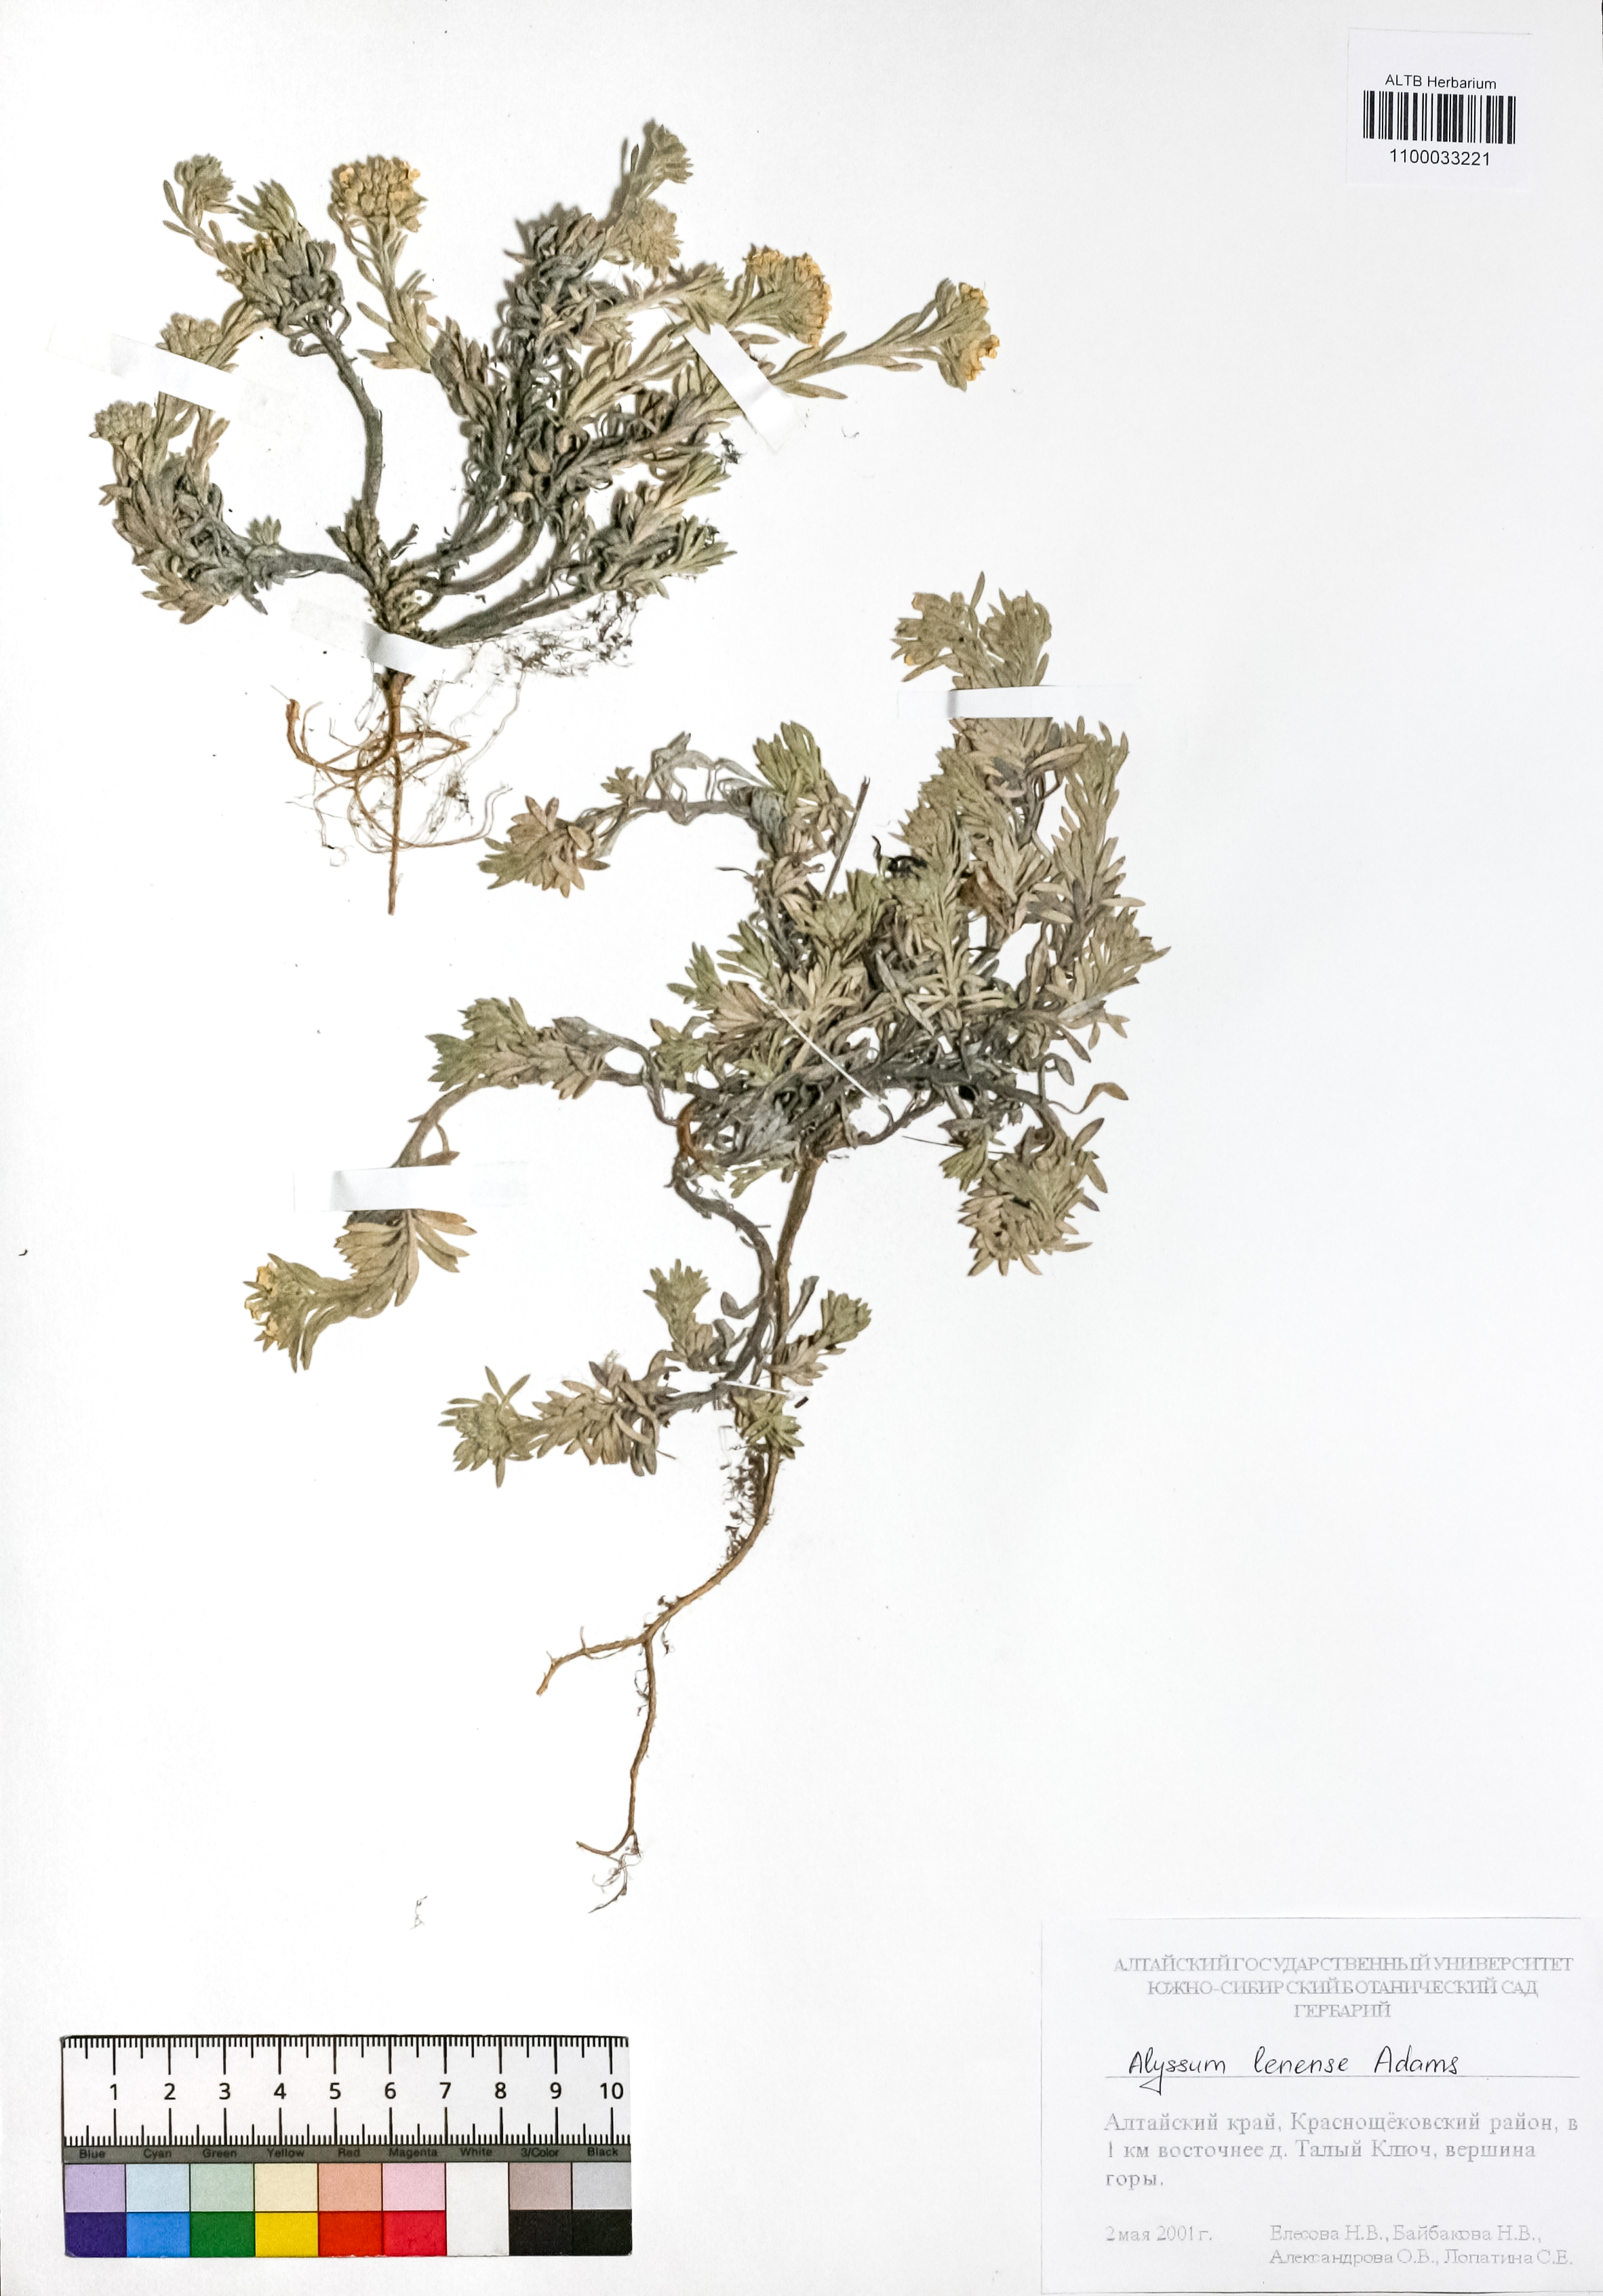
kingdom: Plantae
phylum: Tracheophyta
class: Magnoliopsida
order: Brassicales
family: Brassicaceae
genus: Alyssum
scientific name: Alyssum lenense
